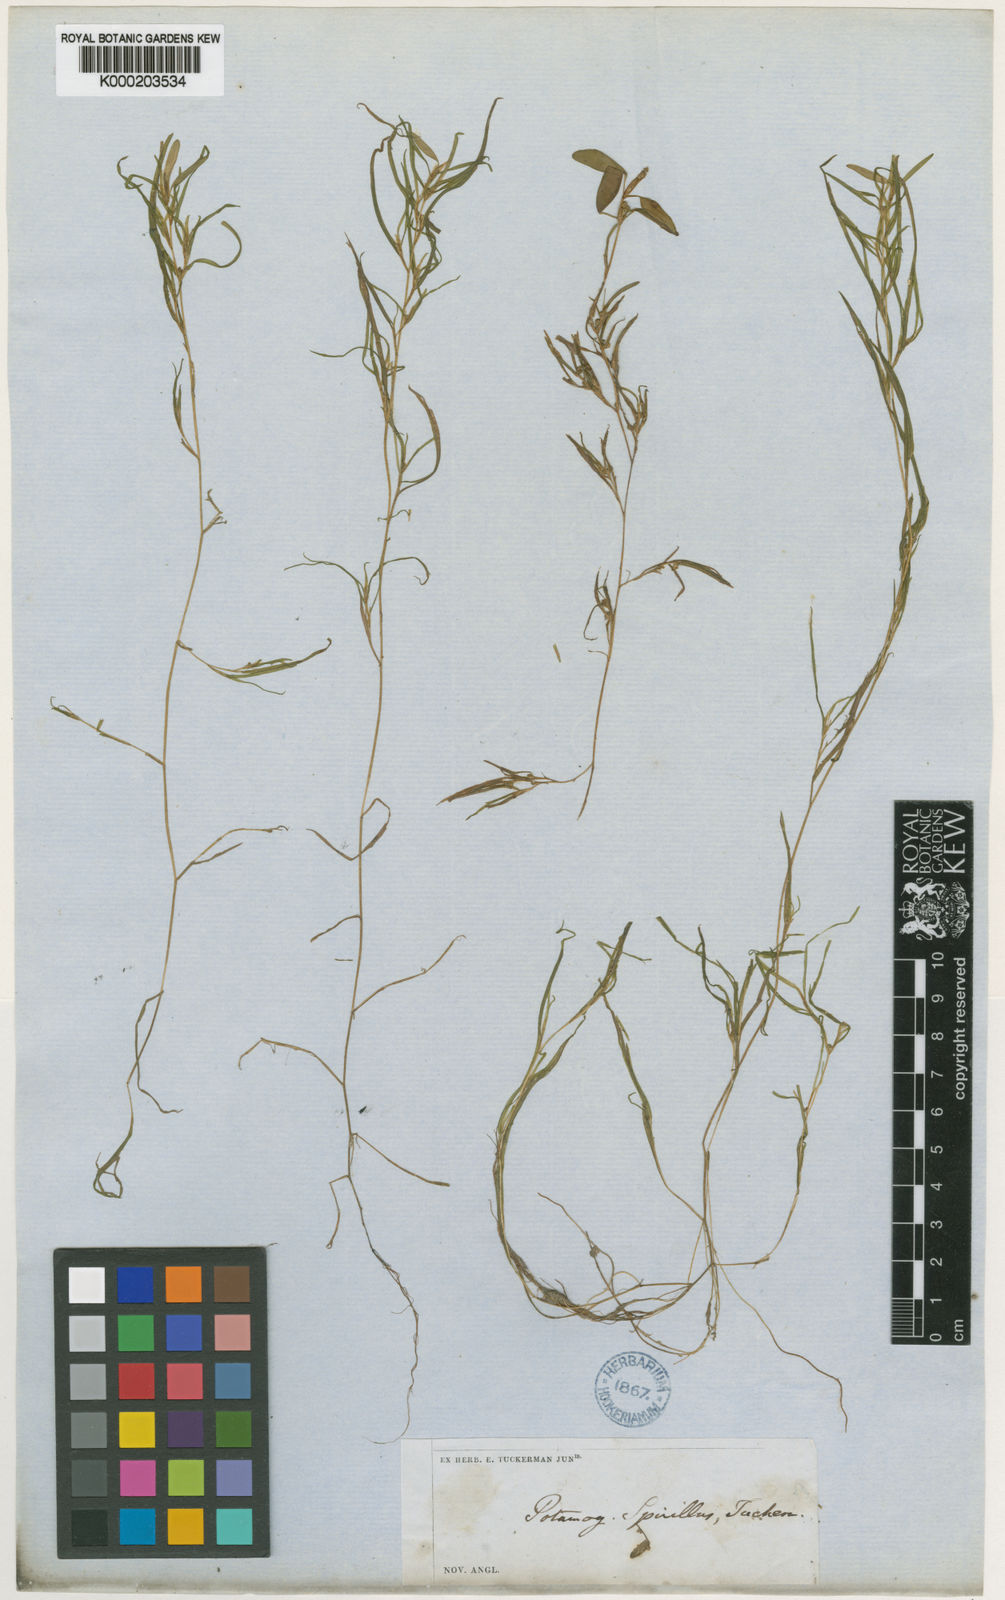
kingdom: Plantae
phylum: Tracheophyta
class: Liliopsida
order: Alismatales
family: Potamogetonaceae
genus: Potamogeton
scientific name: Potamogeton
